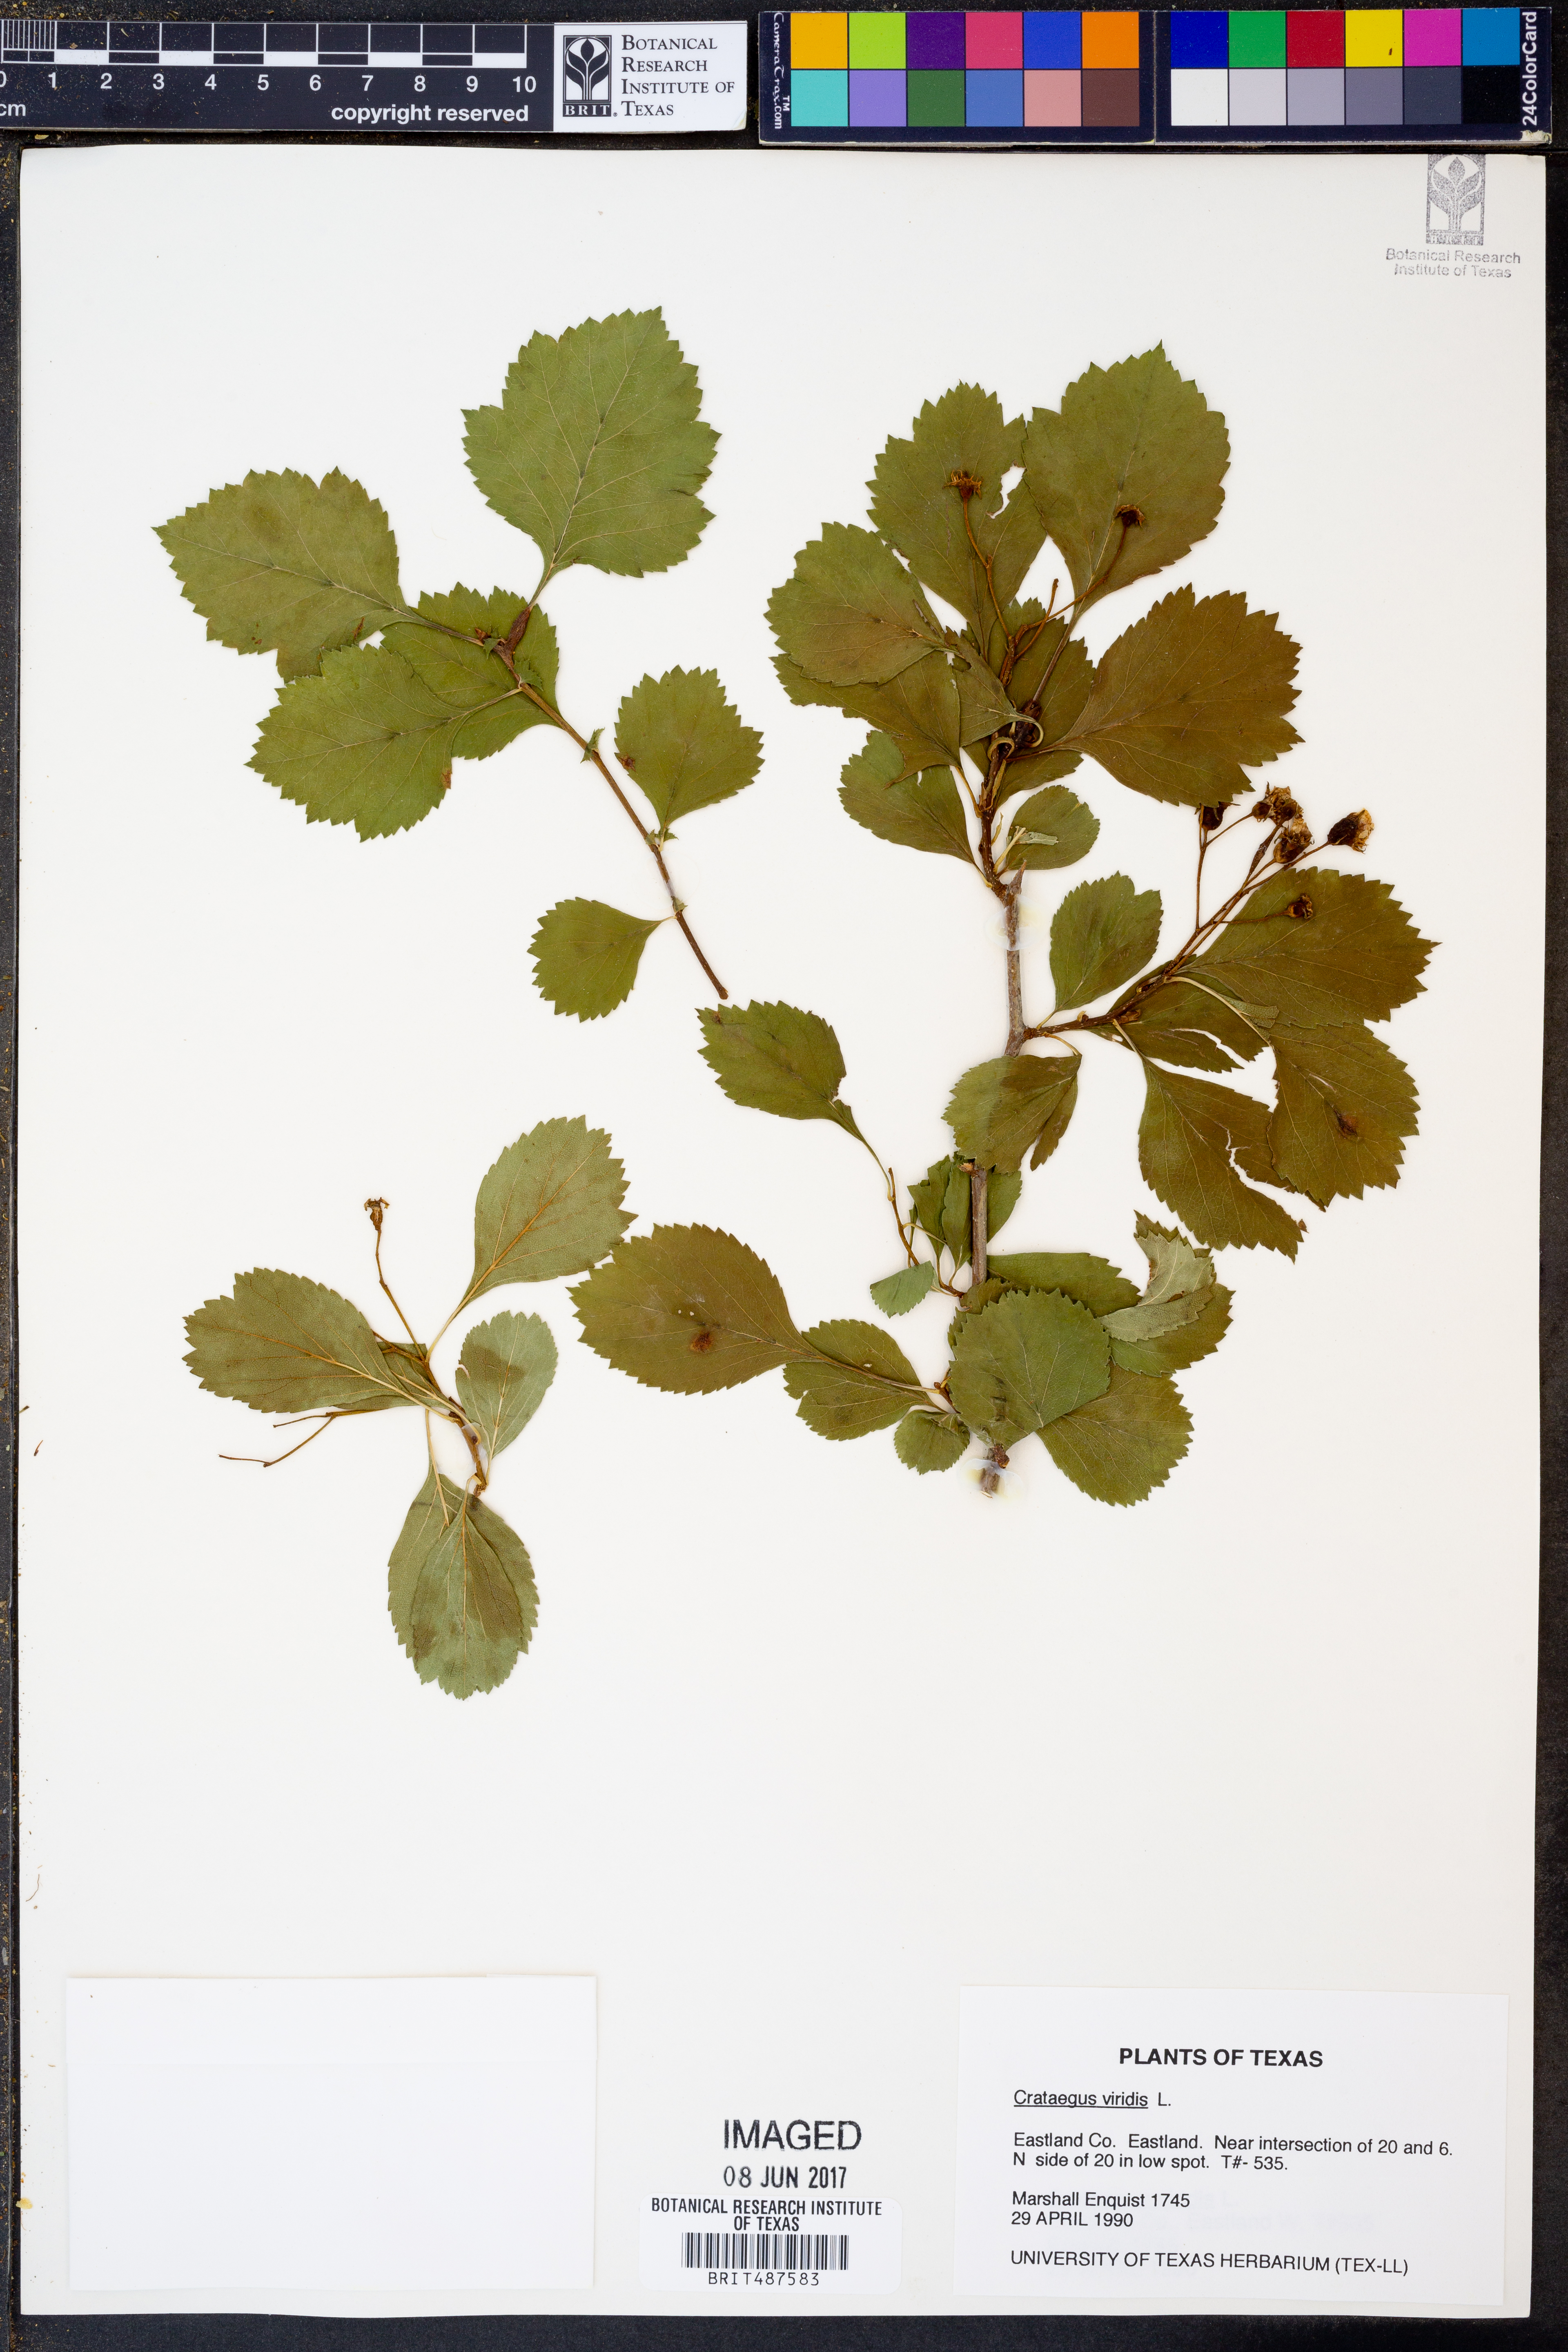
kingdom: Plantae
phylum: Tracheophyta
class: Magnoliopsida
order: Rosales
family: Rosaceae
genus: Crataegus
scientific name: Crataegus viridis
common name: Southernthorn
